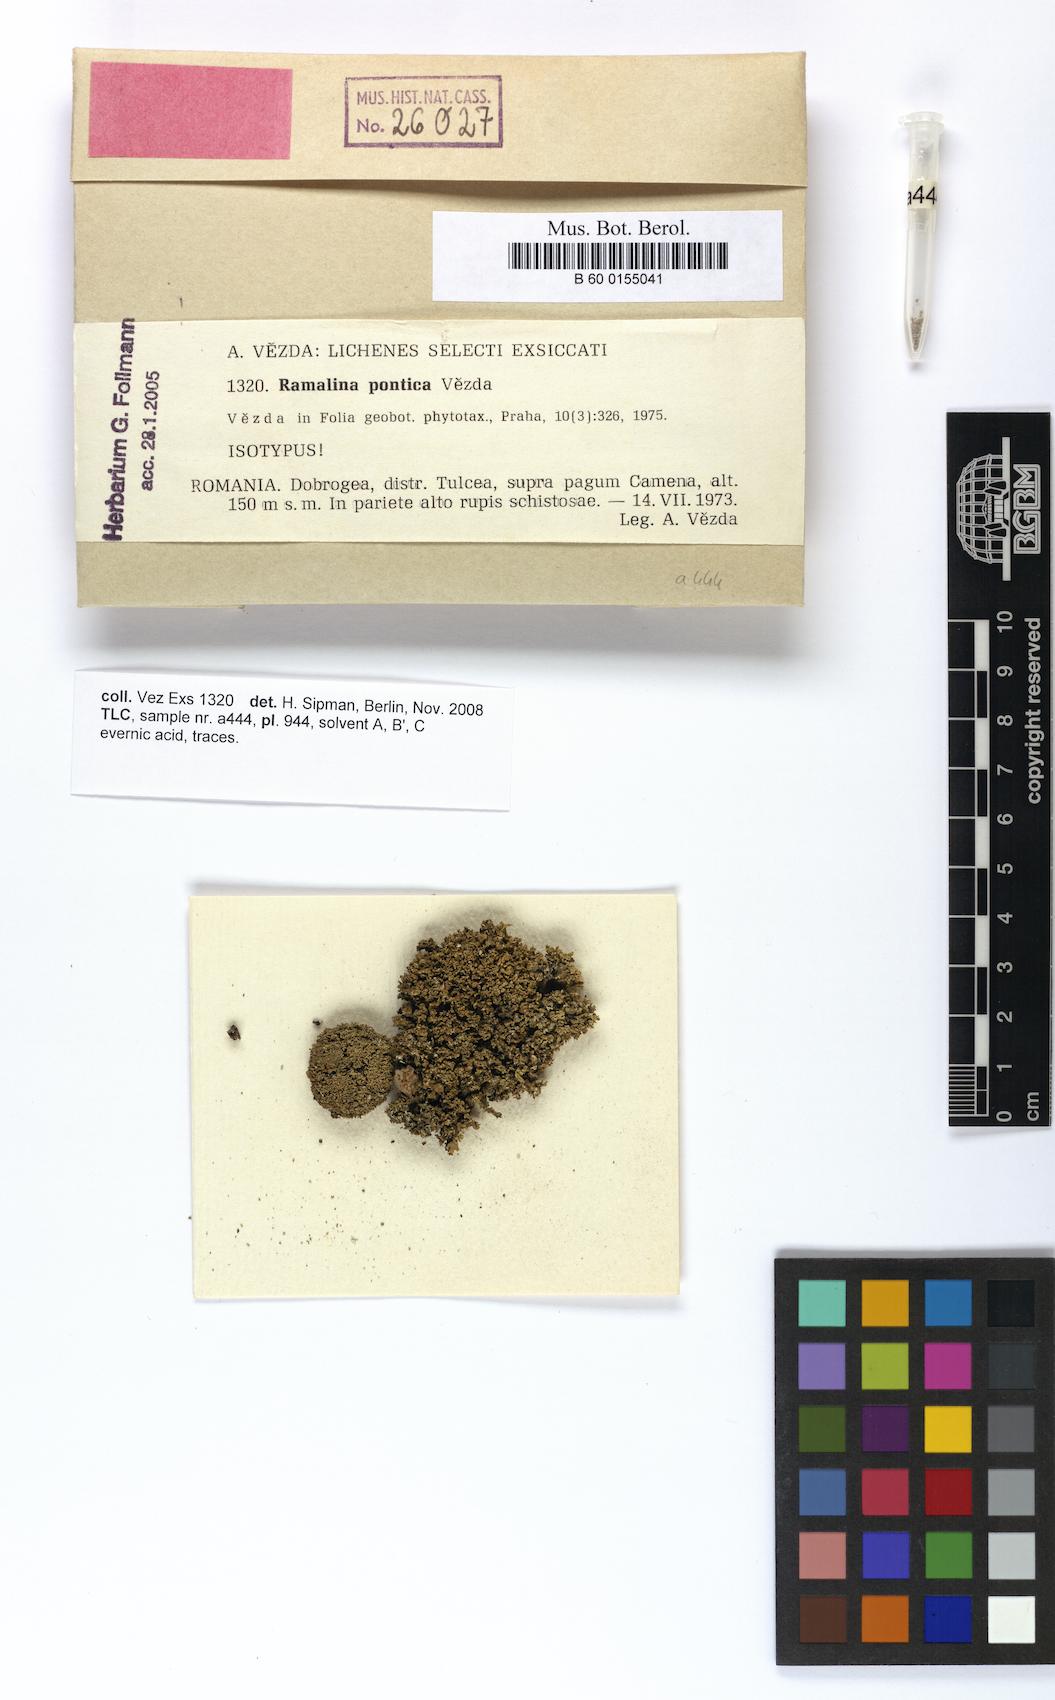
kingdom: Fungi
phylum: Ascomycota
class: Lecanoromycetes
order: Lecanorales
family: Ramalinaceae
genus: Ramalina
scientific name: Ramalina pontica
